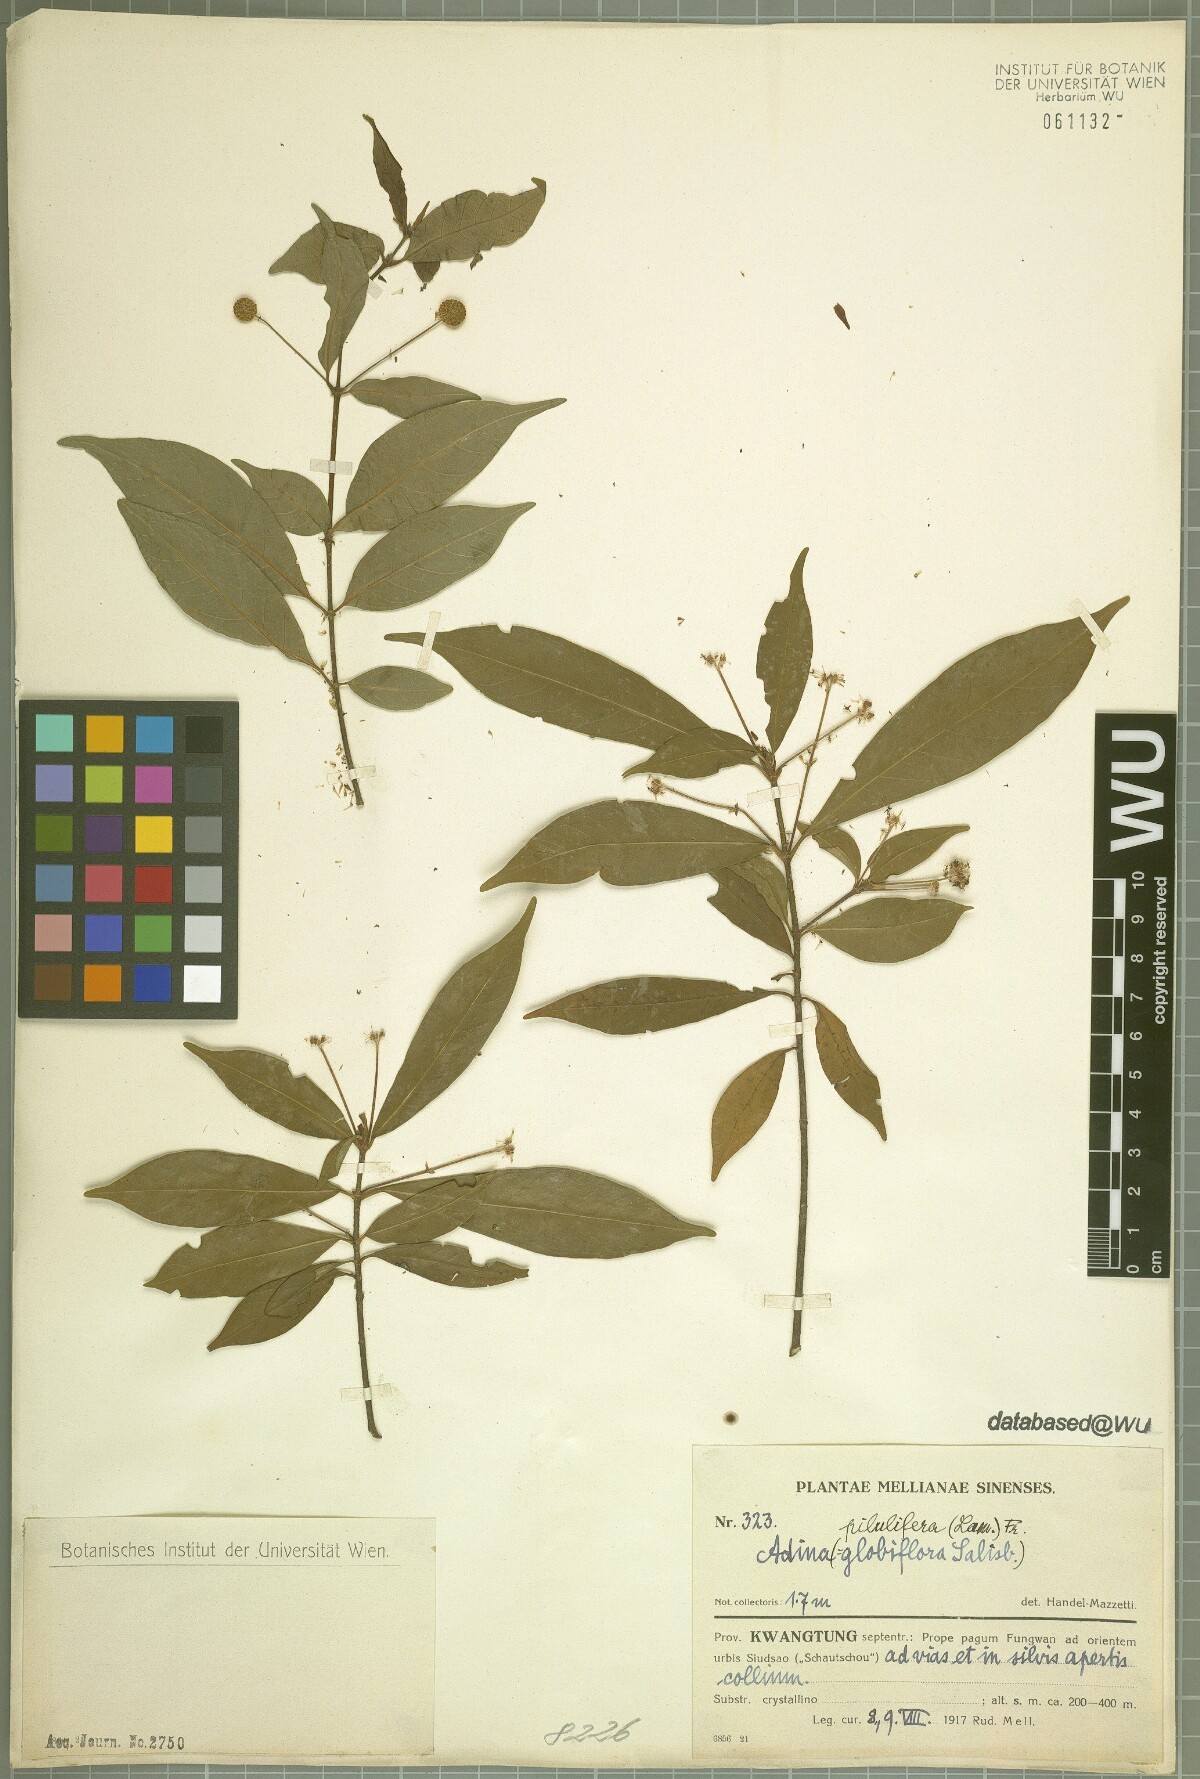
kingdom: Plantae
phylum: Tracheophyta
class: Magnoliopsida
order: Gentianales
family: Rubiaceae
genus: Adina
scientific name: Adina pilulifera
